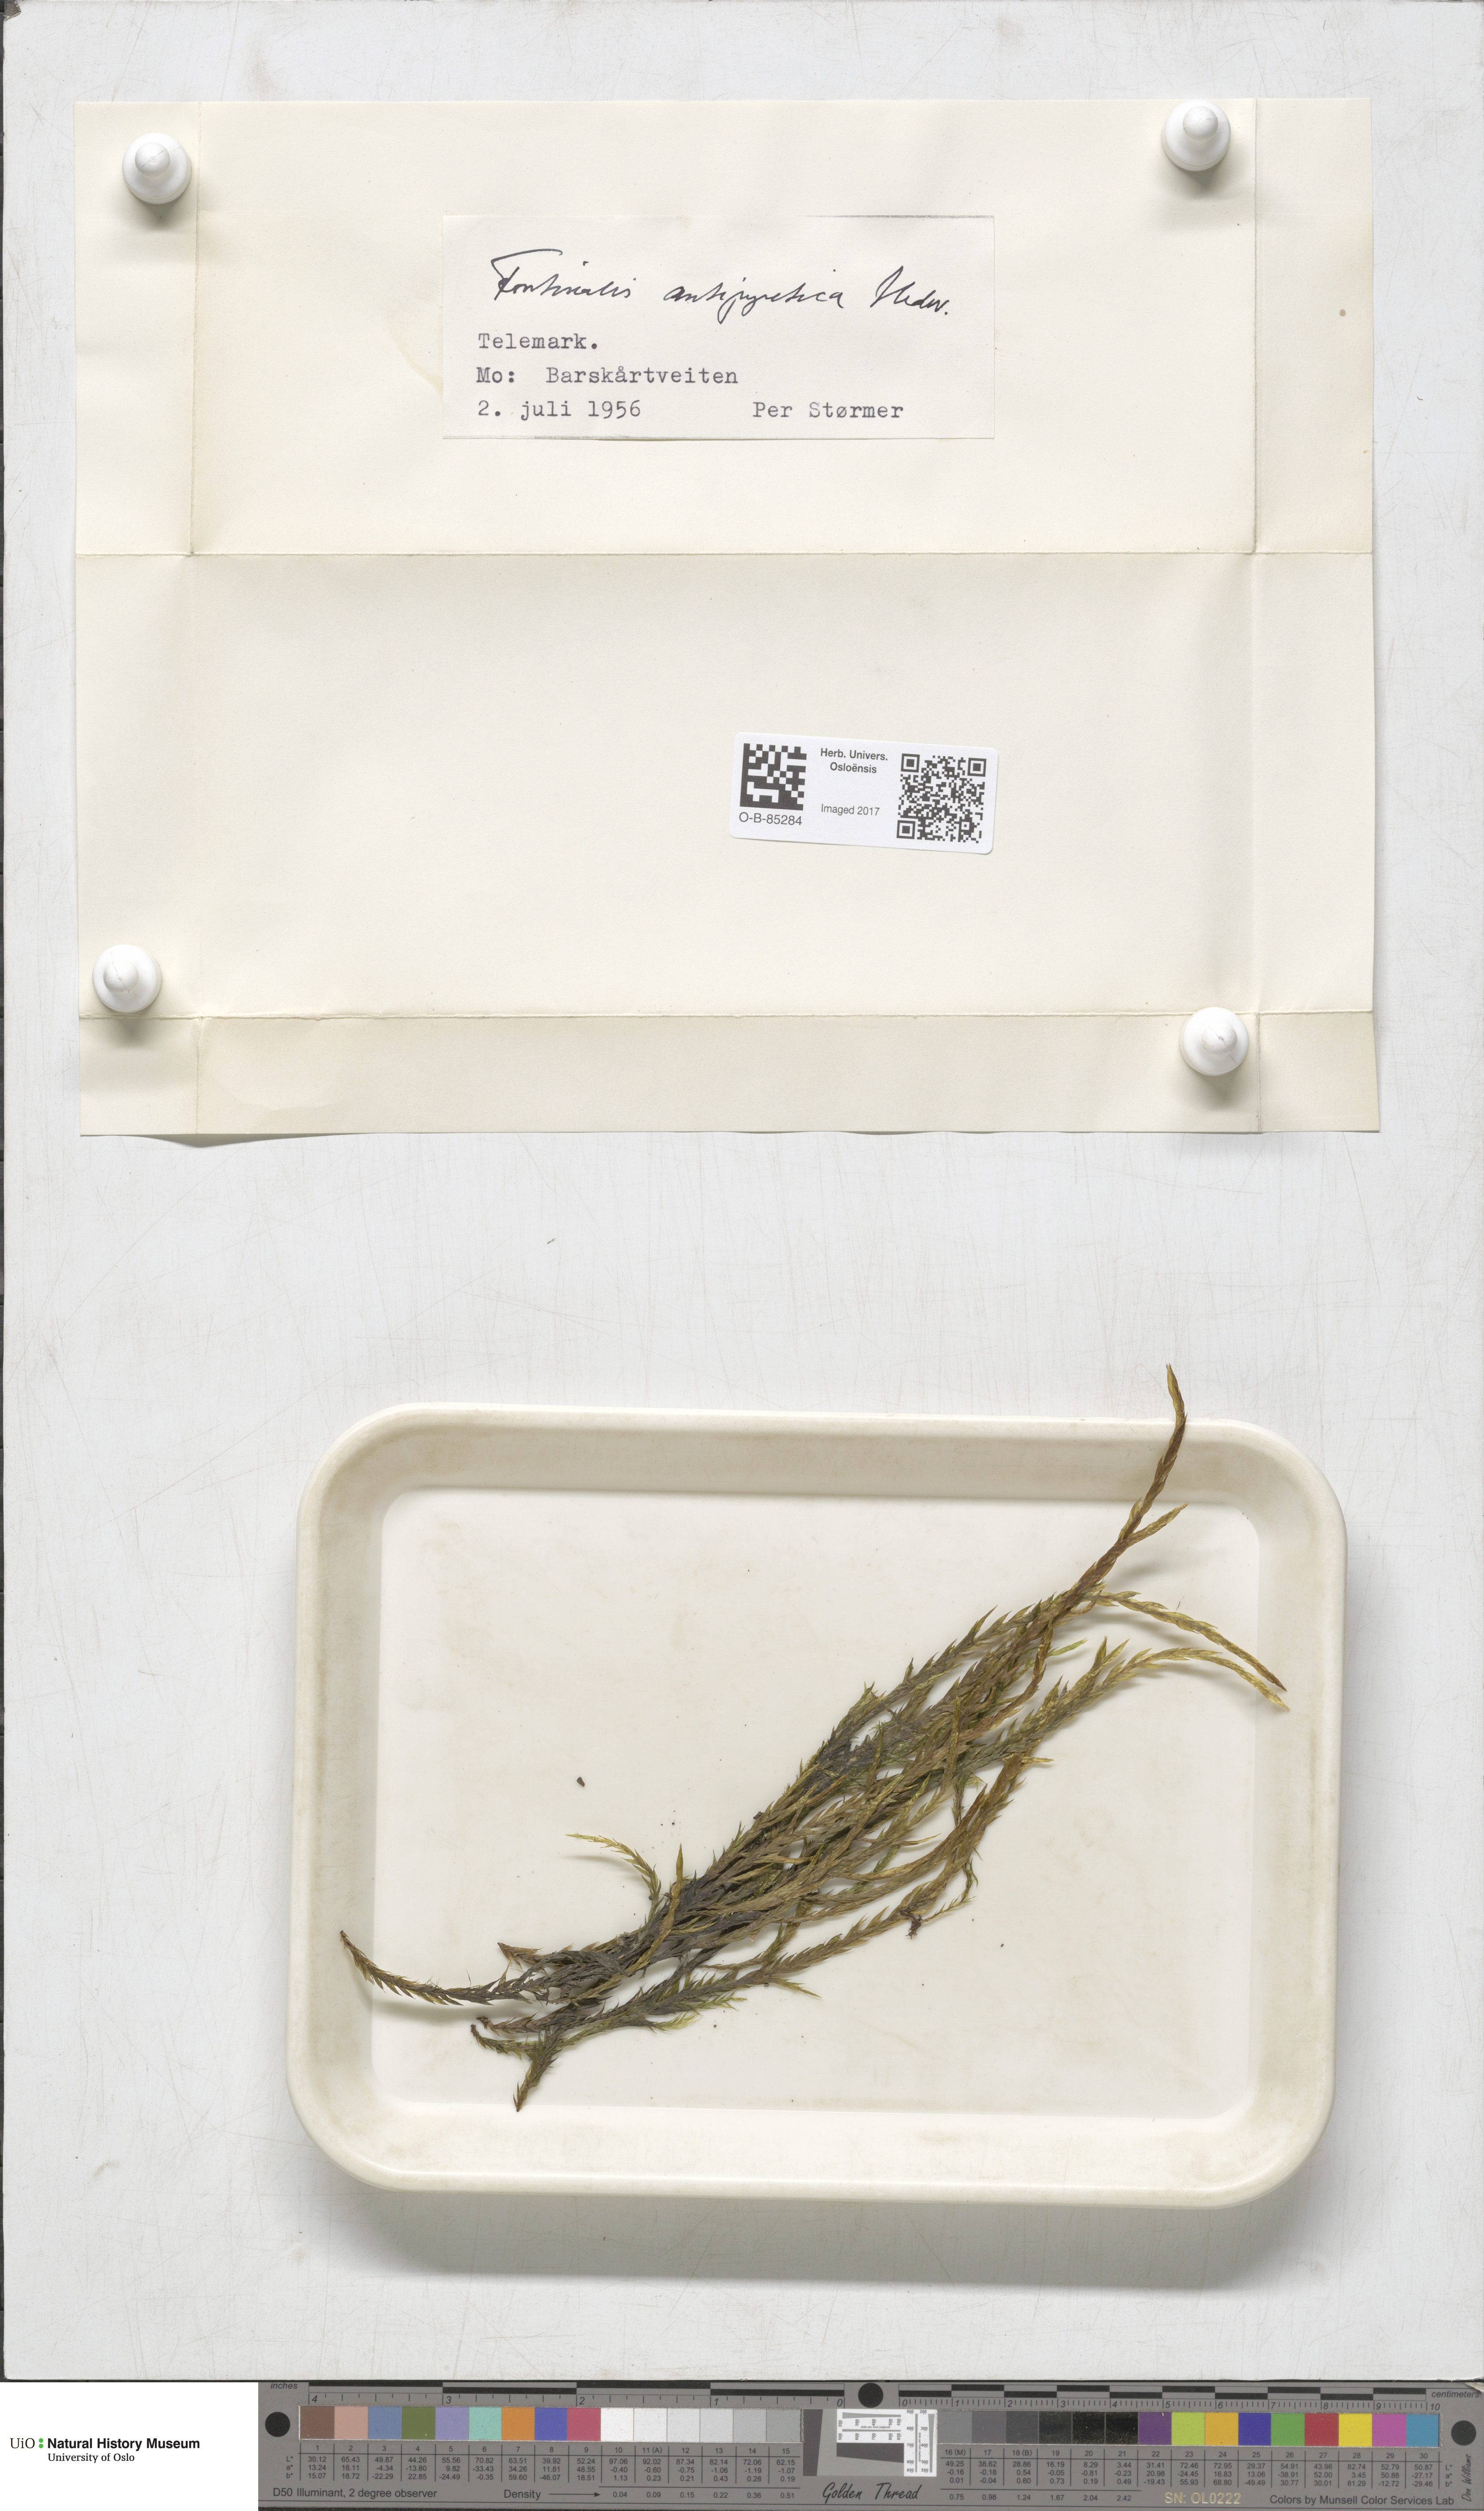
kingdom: Plantae
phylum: Bryophyta
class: Bryopsida
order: Hypnales
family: Fontinalaceae
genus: Fontinalis
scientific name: Fontinalis antipyretica
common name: Greater water-moss
